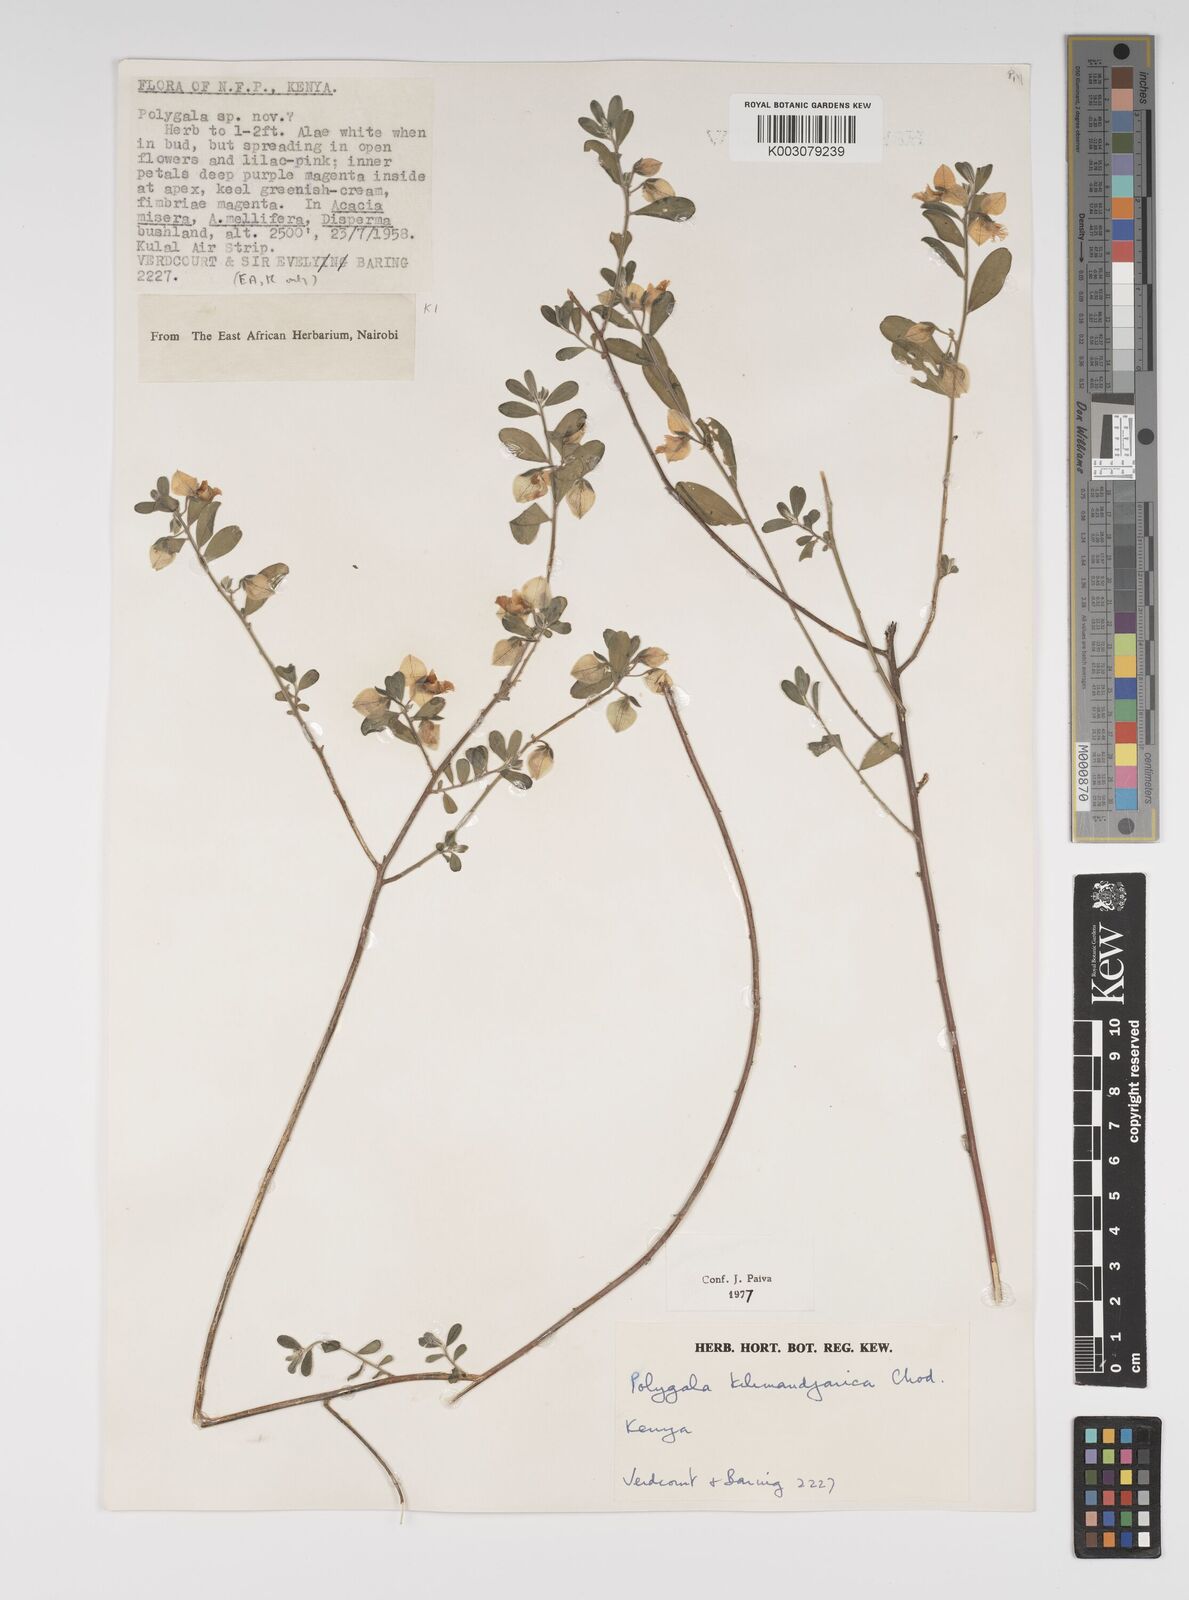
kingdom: Plantae
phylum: Tracheophyta
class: Magnoliopsida
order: Fabales
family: Polygalaceae
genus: Polygala
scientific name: Polygala kilimandjarica
